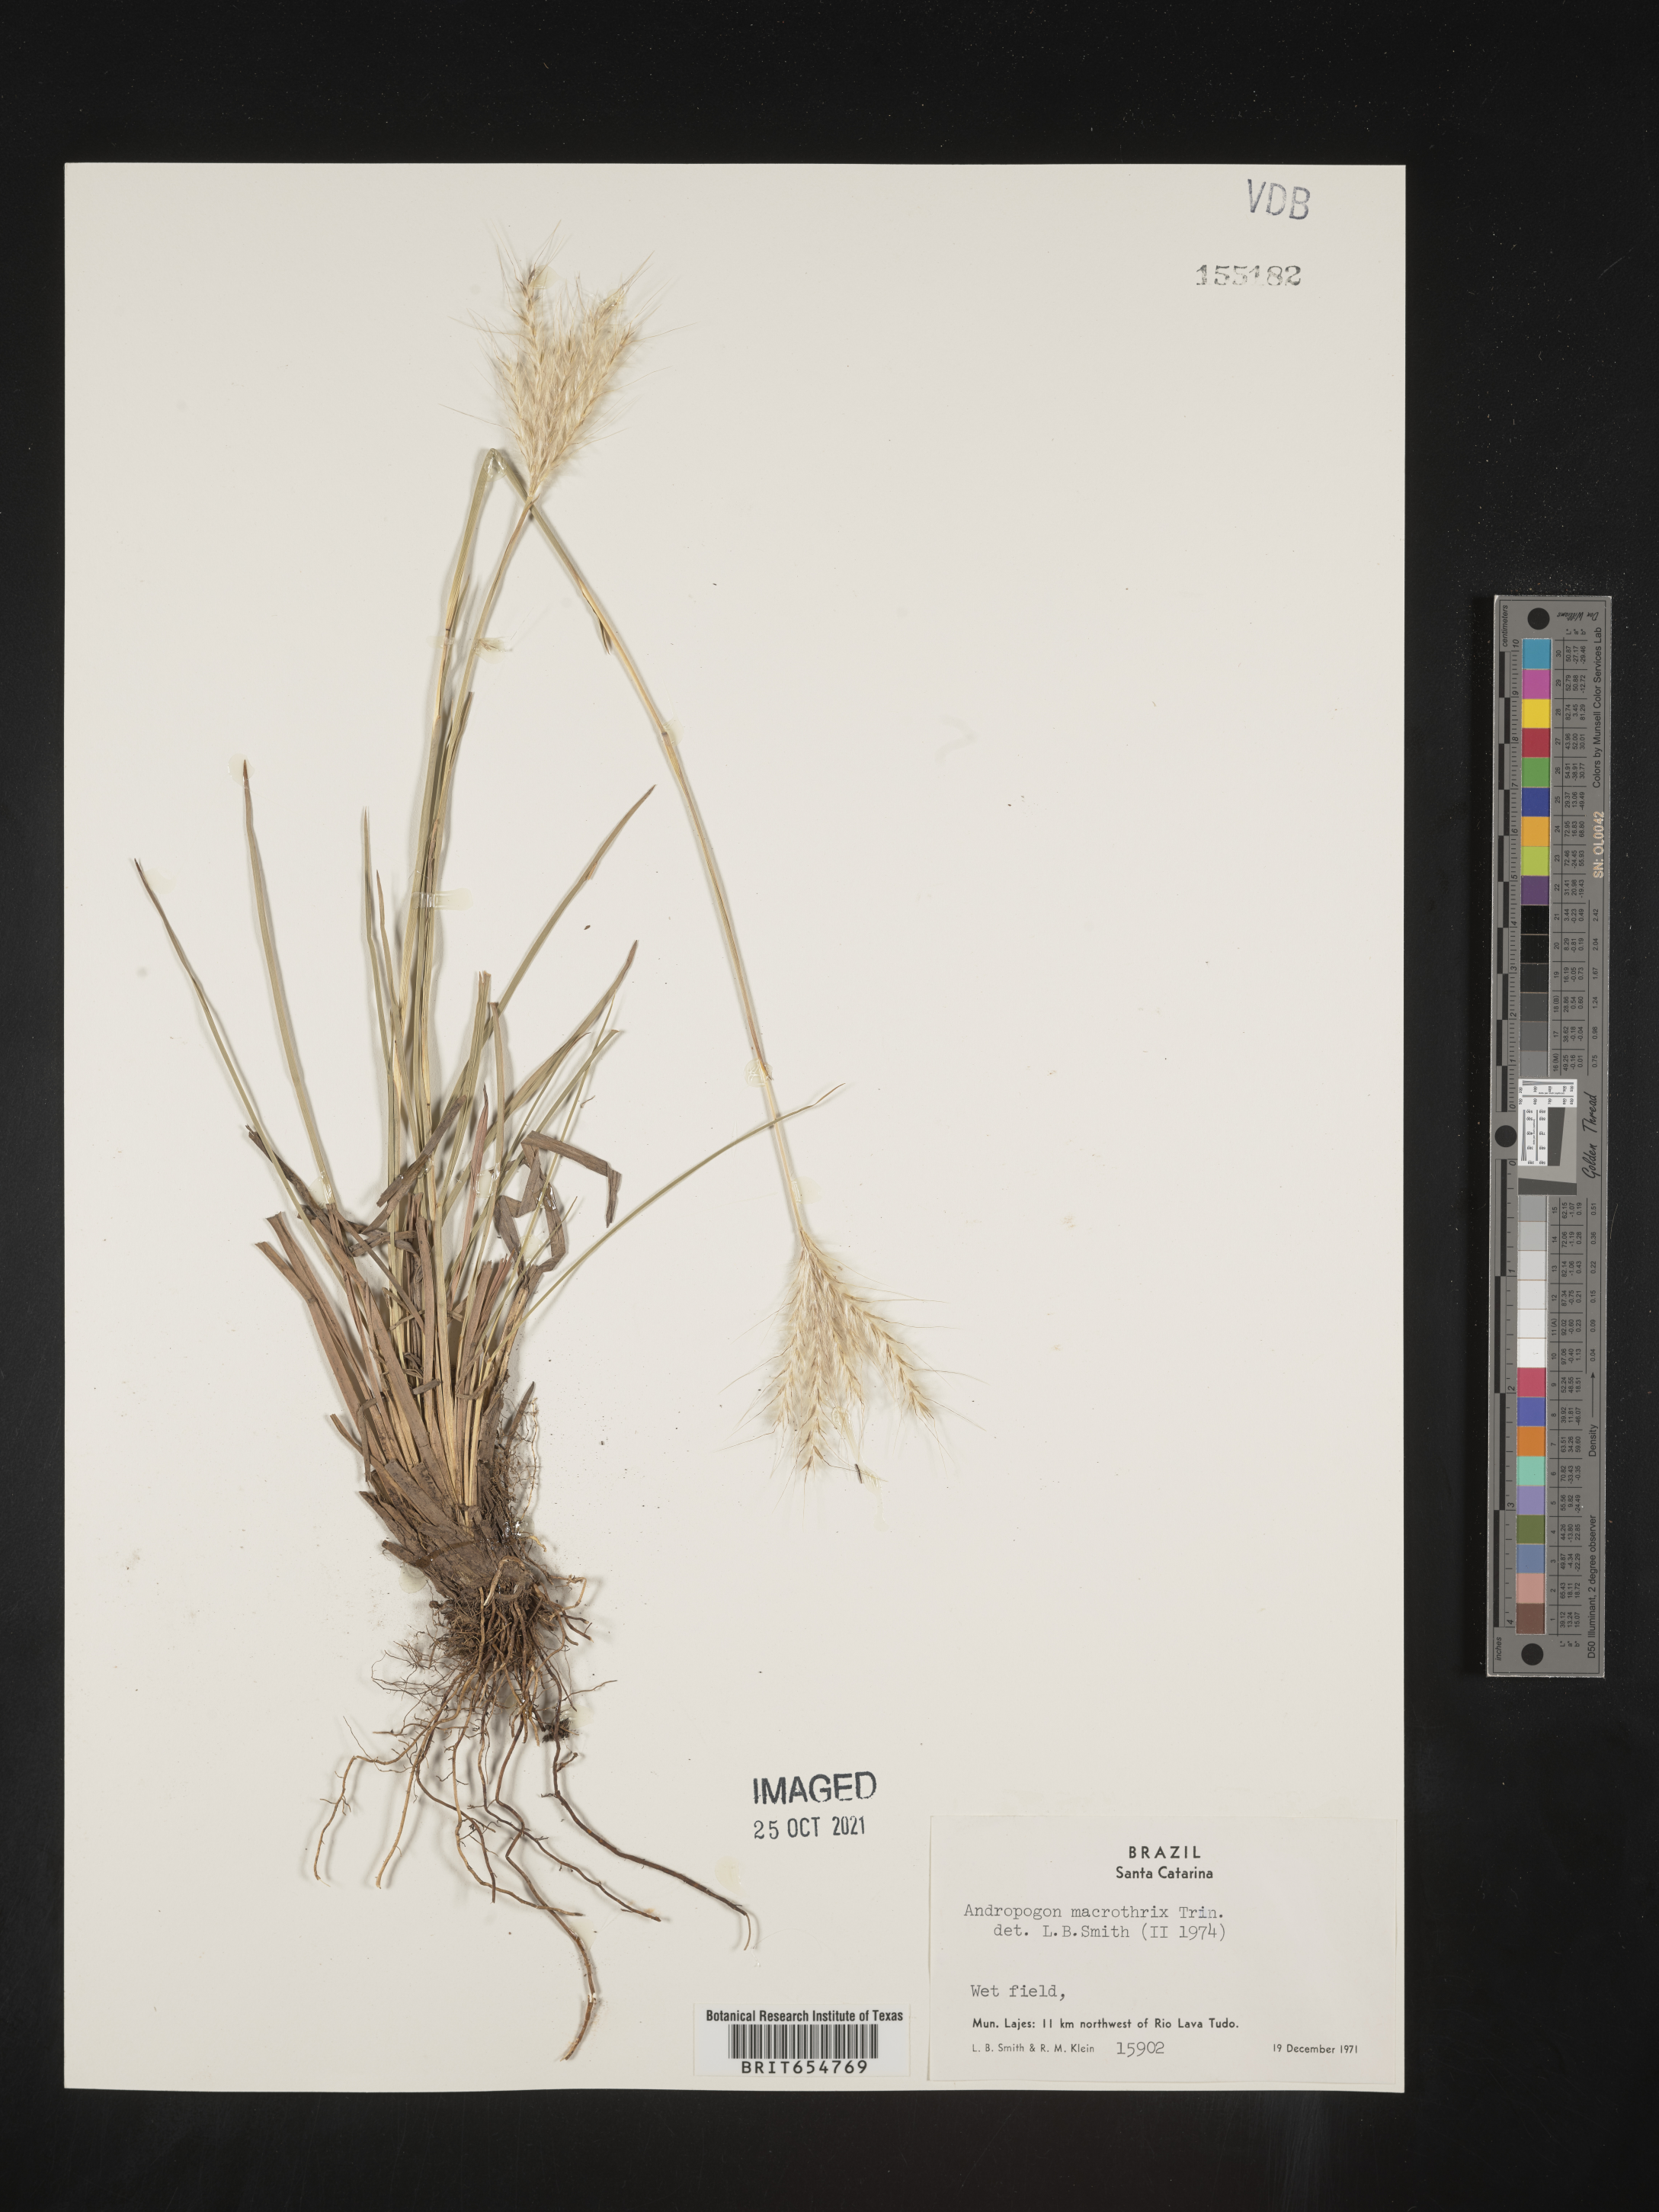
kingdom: Plantae
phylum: Tracheophyta
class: Liliopsida
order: Poales
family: Poaceae
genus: Andropogon
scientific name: Andropogon
